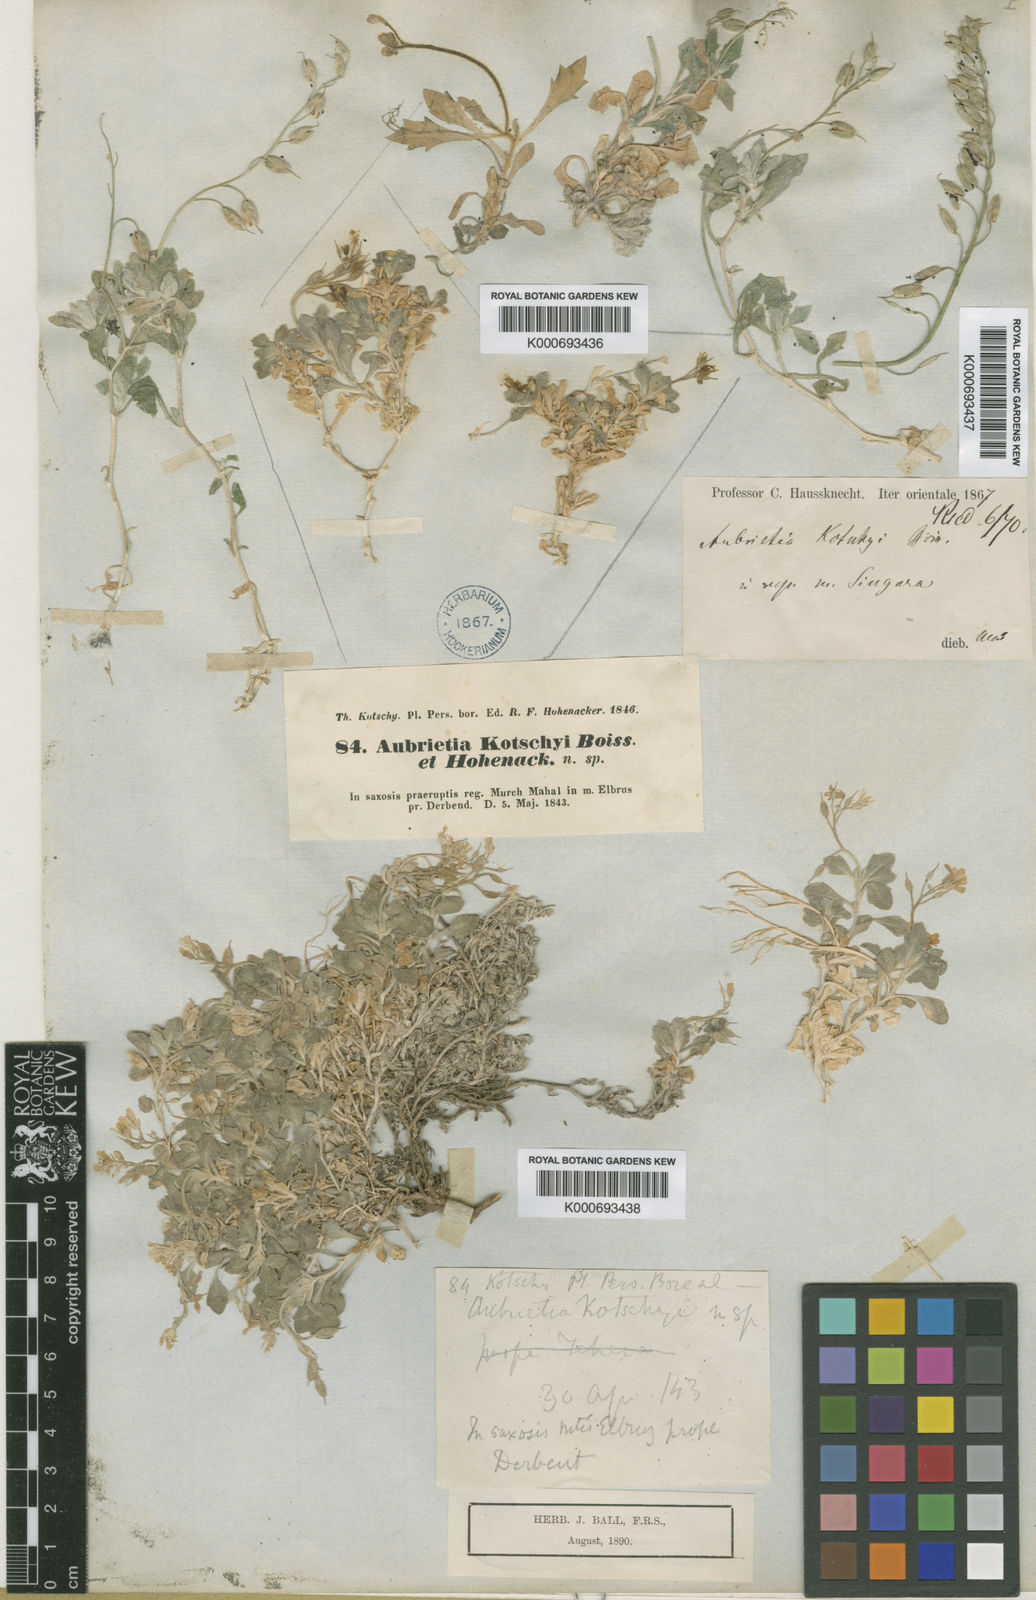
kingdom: Plantae
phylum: Tracheophyta
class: Magnoliopsida
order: Brassicales
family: Brassicaceae
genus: Aubrieta
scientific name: Aubrieta parviflora
